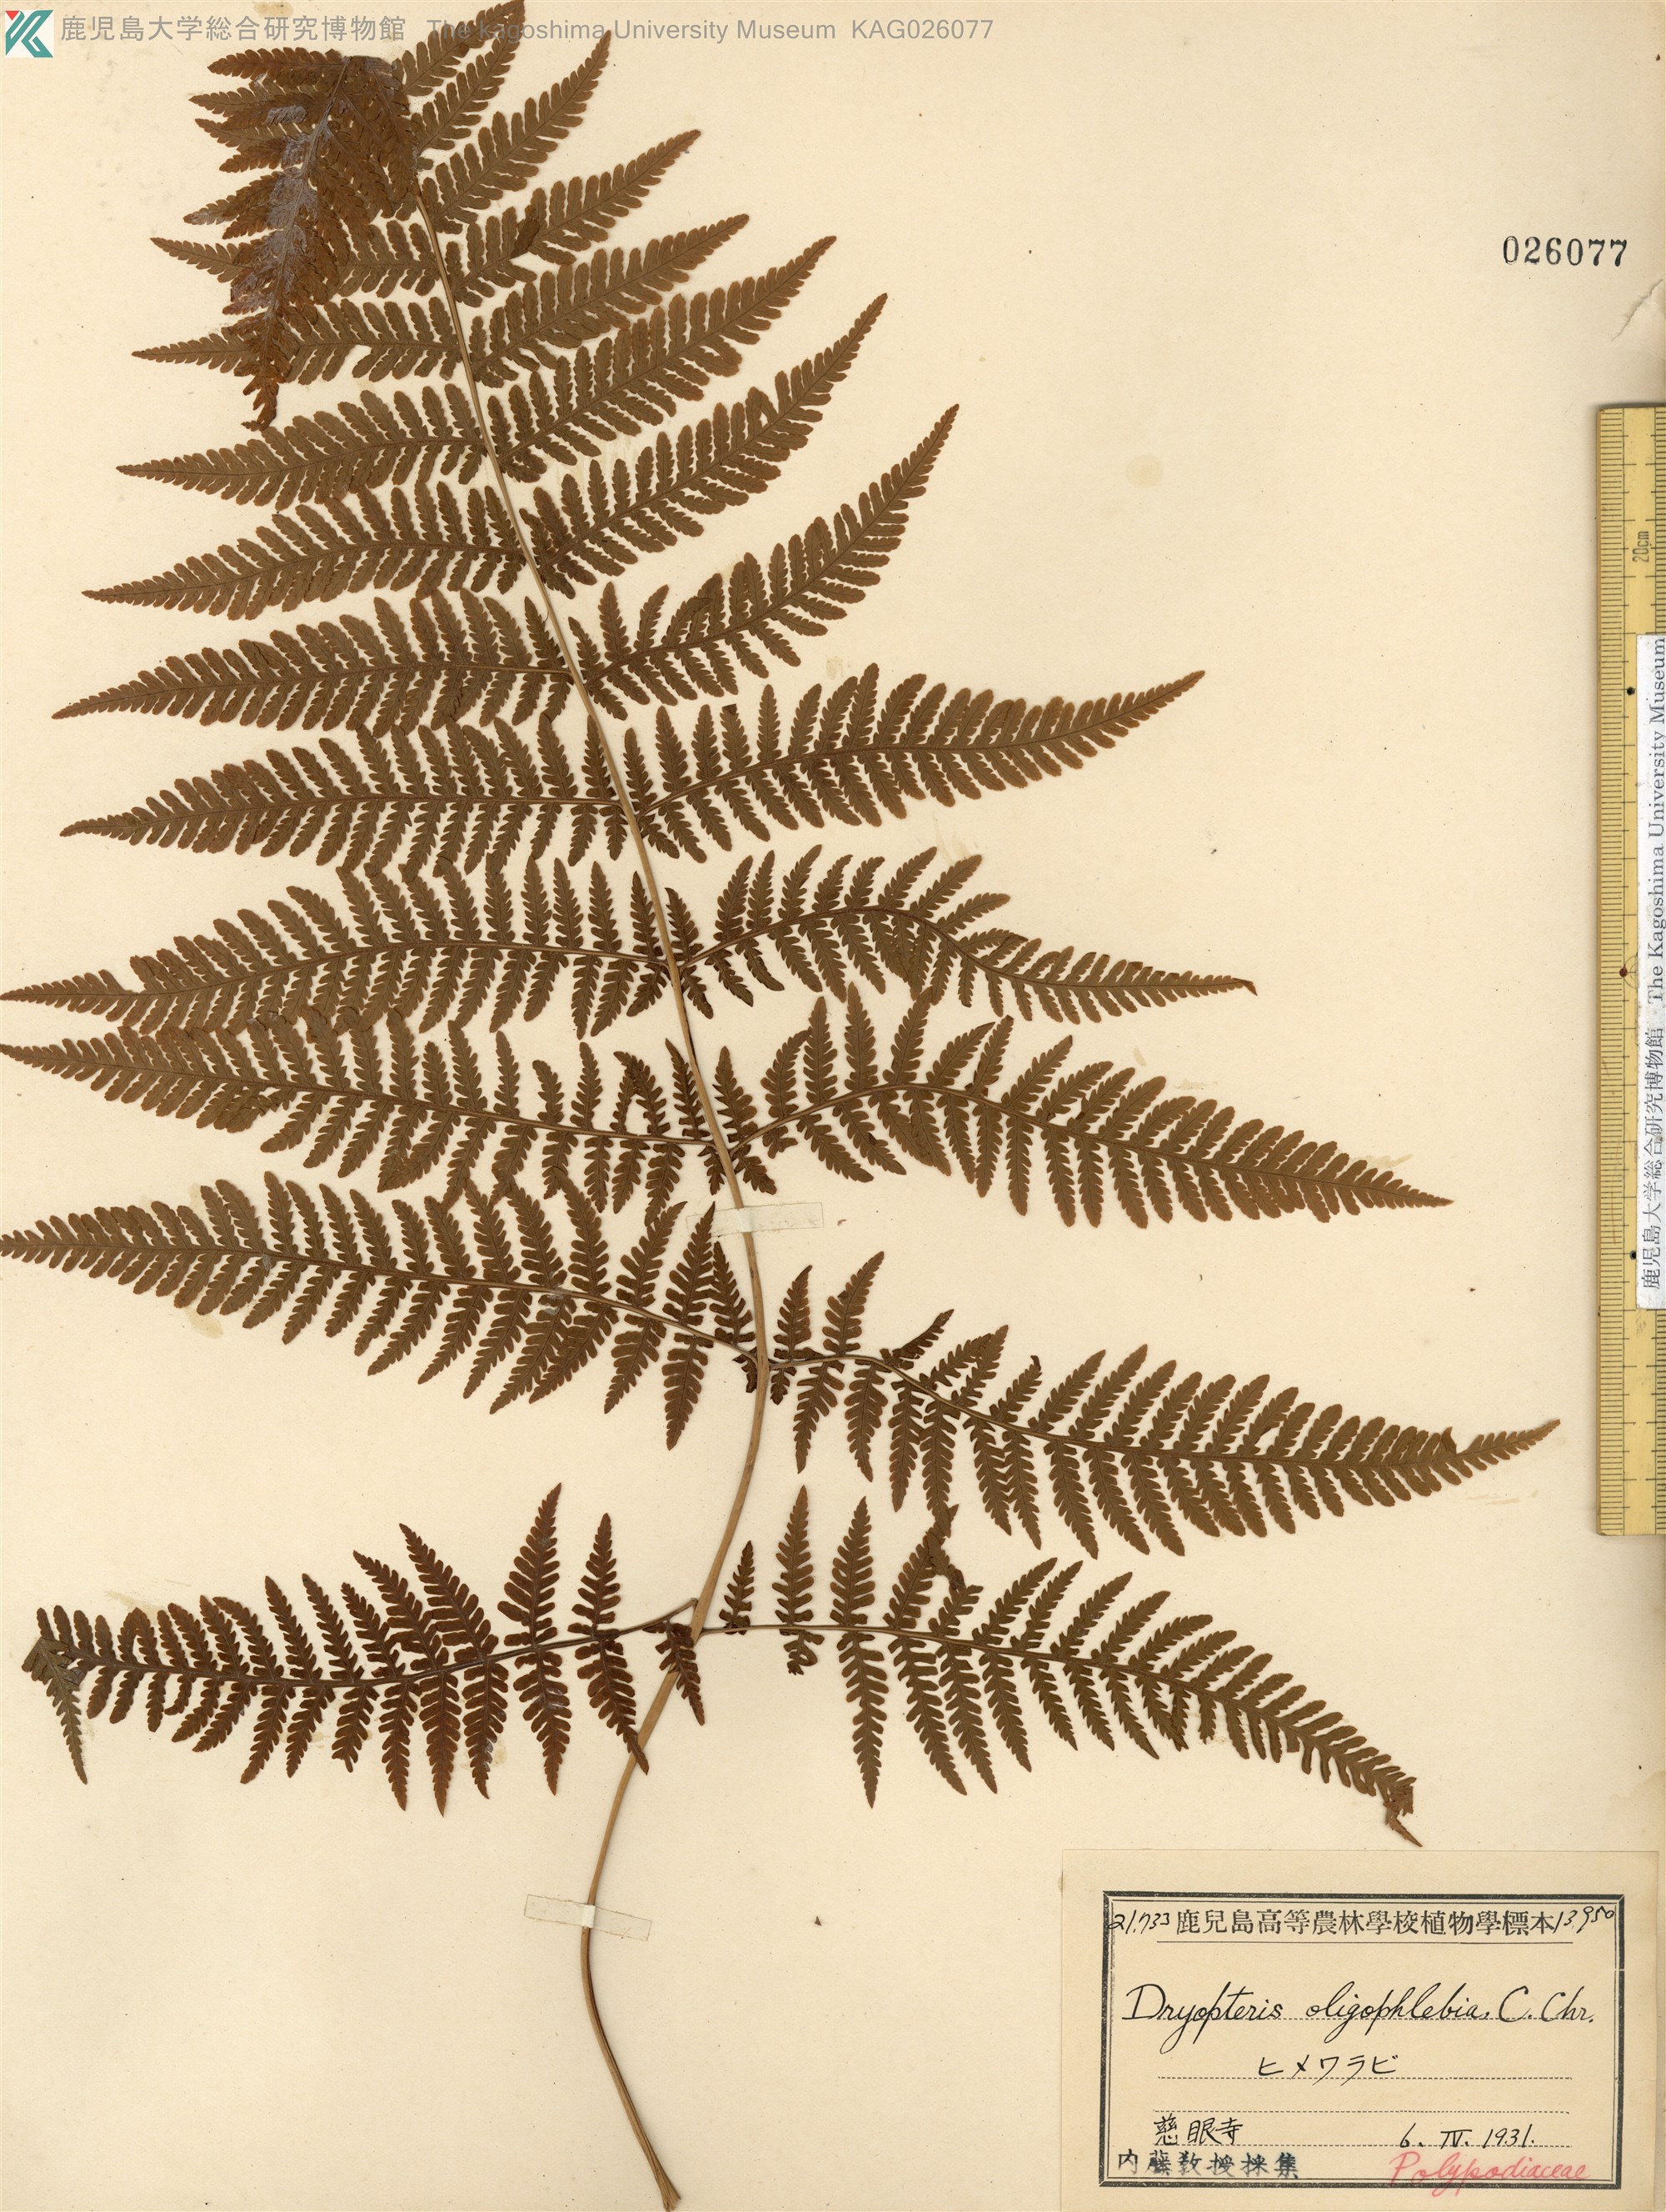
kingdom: Plantae
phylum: Tracheophyta
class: Polypodiopsida
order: Polypodiales
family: Thelypteridaceae
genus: Macrothelypteris
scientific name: Macrothelypteris oligophlebia
